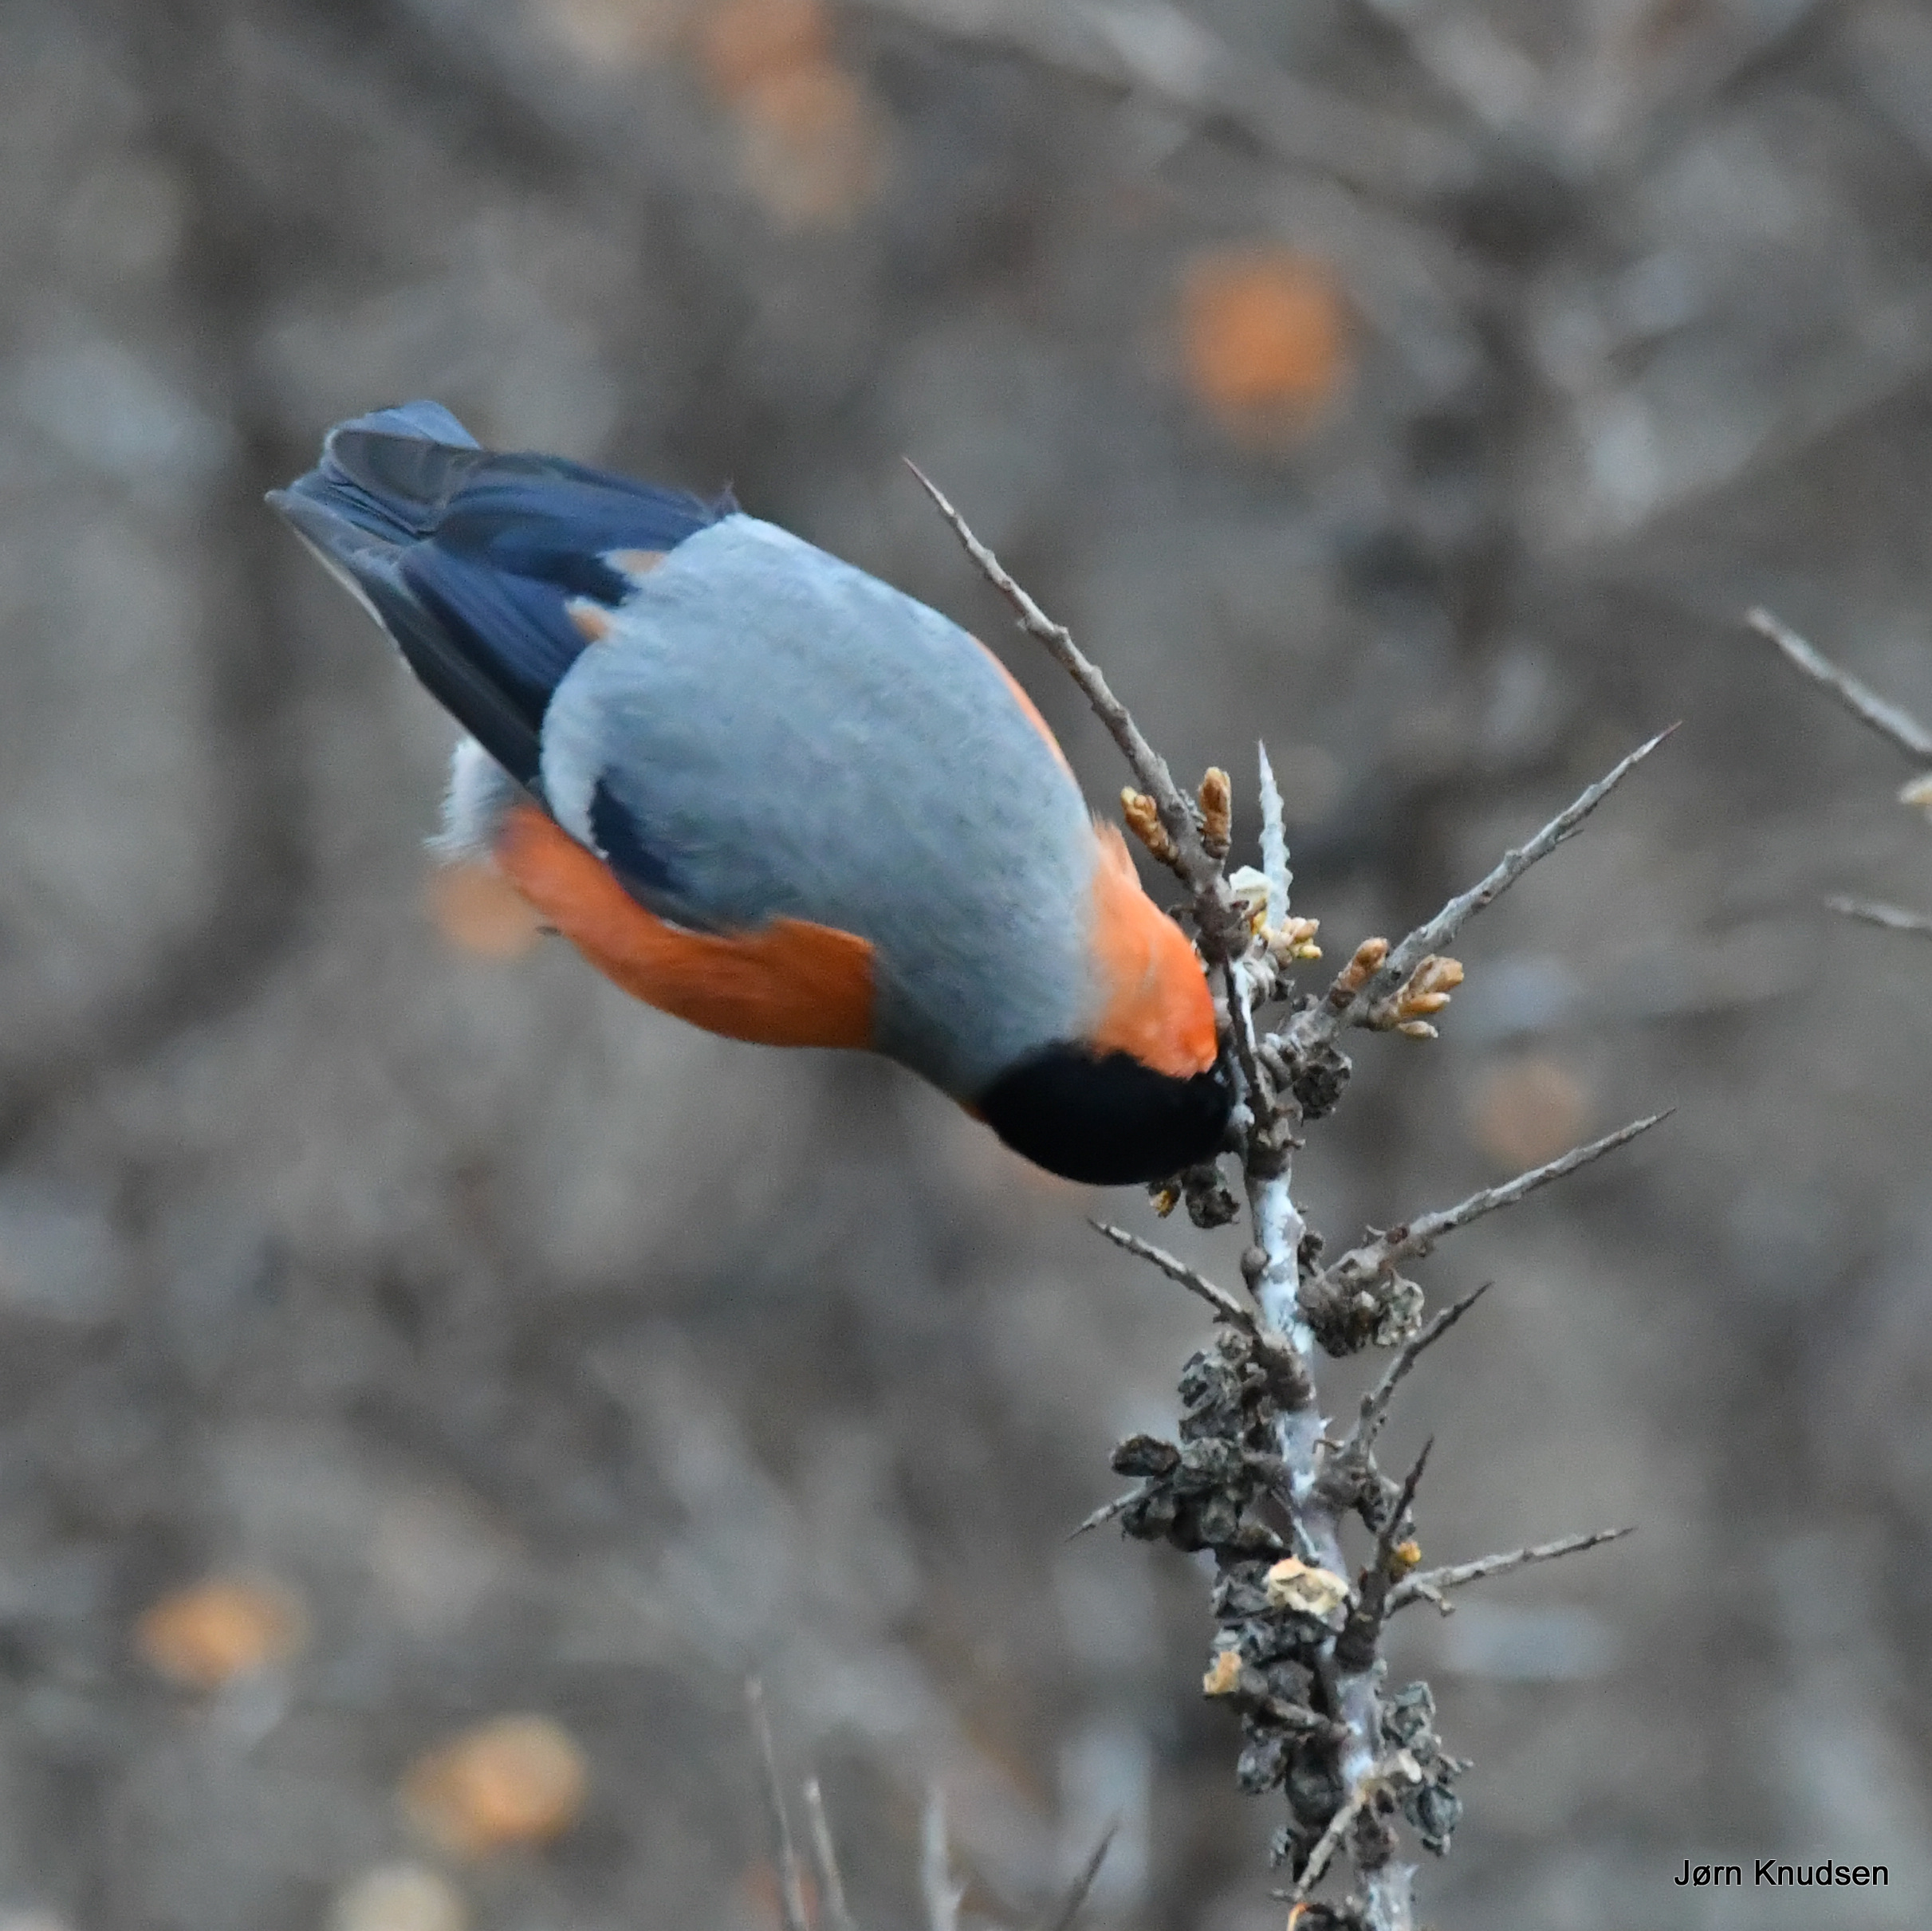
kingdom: Animalia
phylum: Chordata
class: Aves
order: Passeriformes
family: Fringillidae
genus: Pyrrhula
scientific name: Pyrrhula pyrrhula
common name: Dompap
